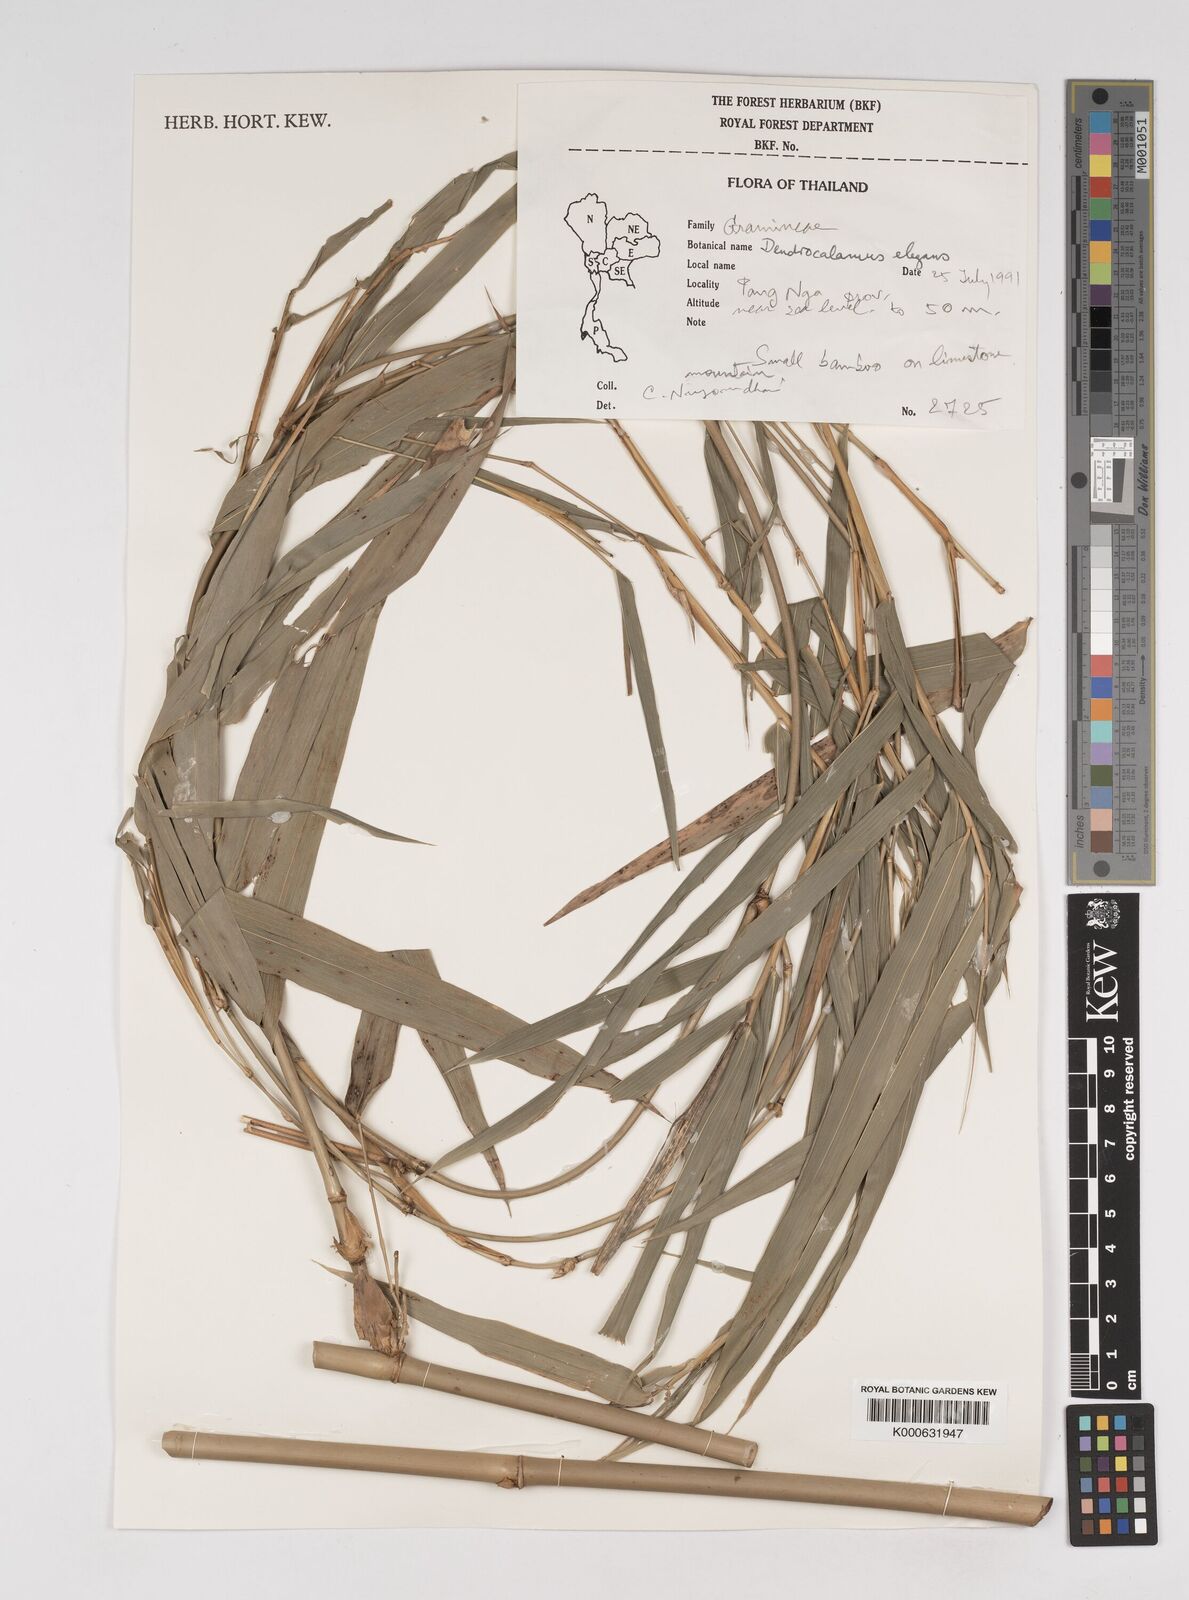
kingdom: Plantae
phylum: Tracheophyta
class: Liliopsida
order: Poales
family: Poaceae
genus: Dendrocalamus
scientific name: Dendrocalamus brandisii
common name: Velvetleaf bamboo
